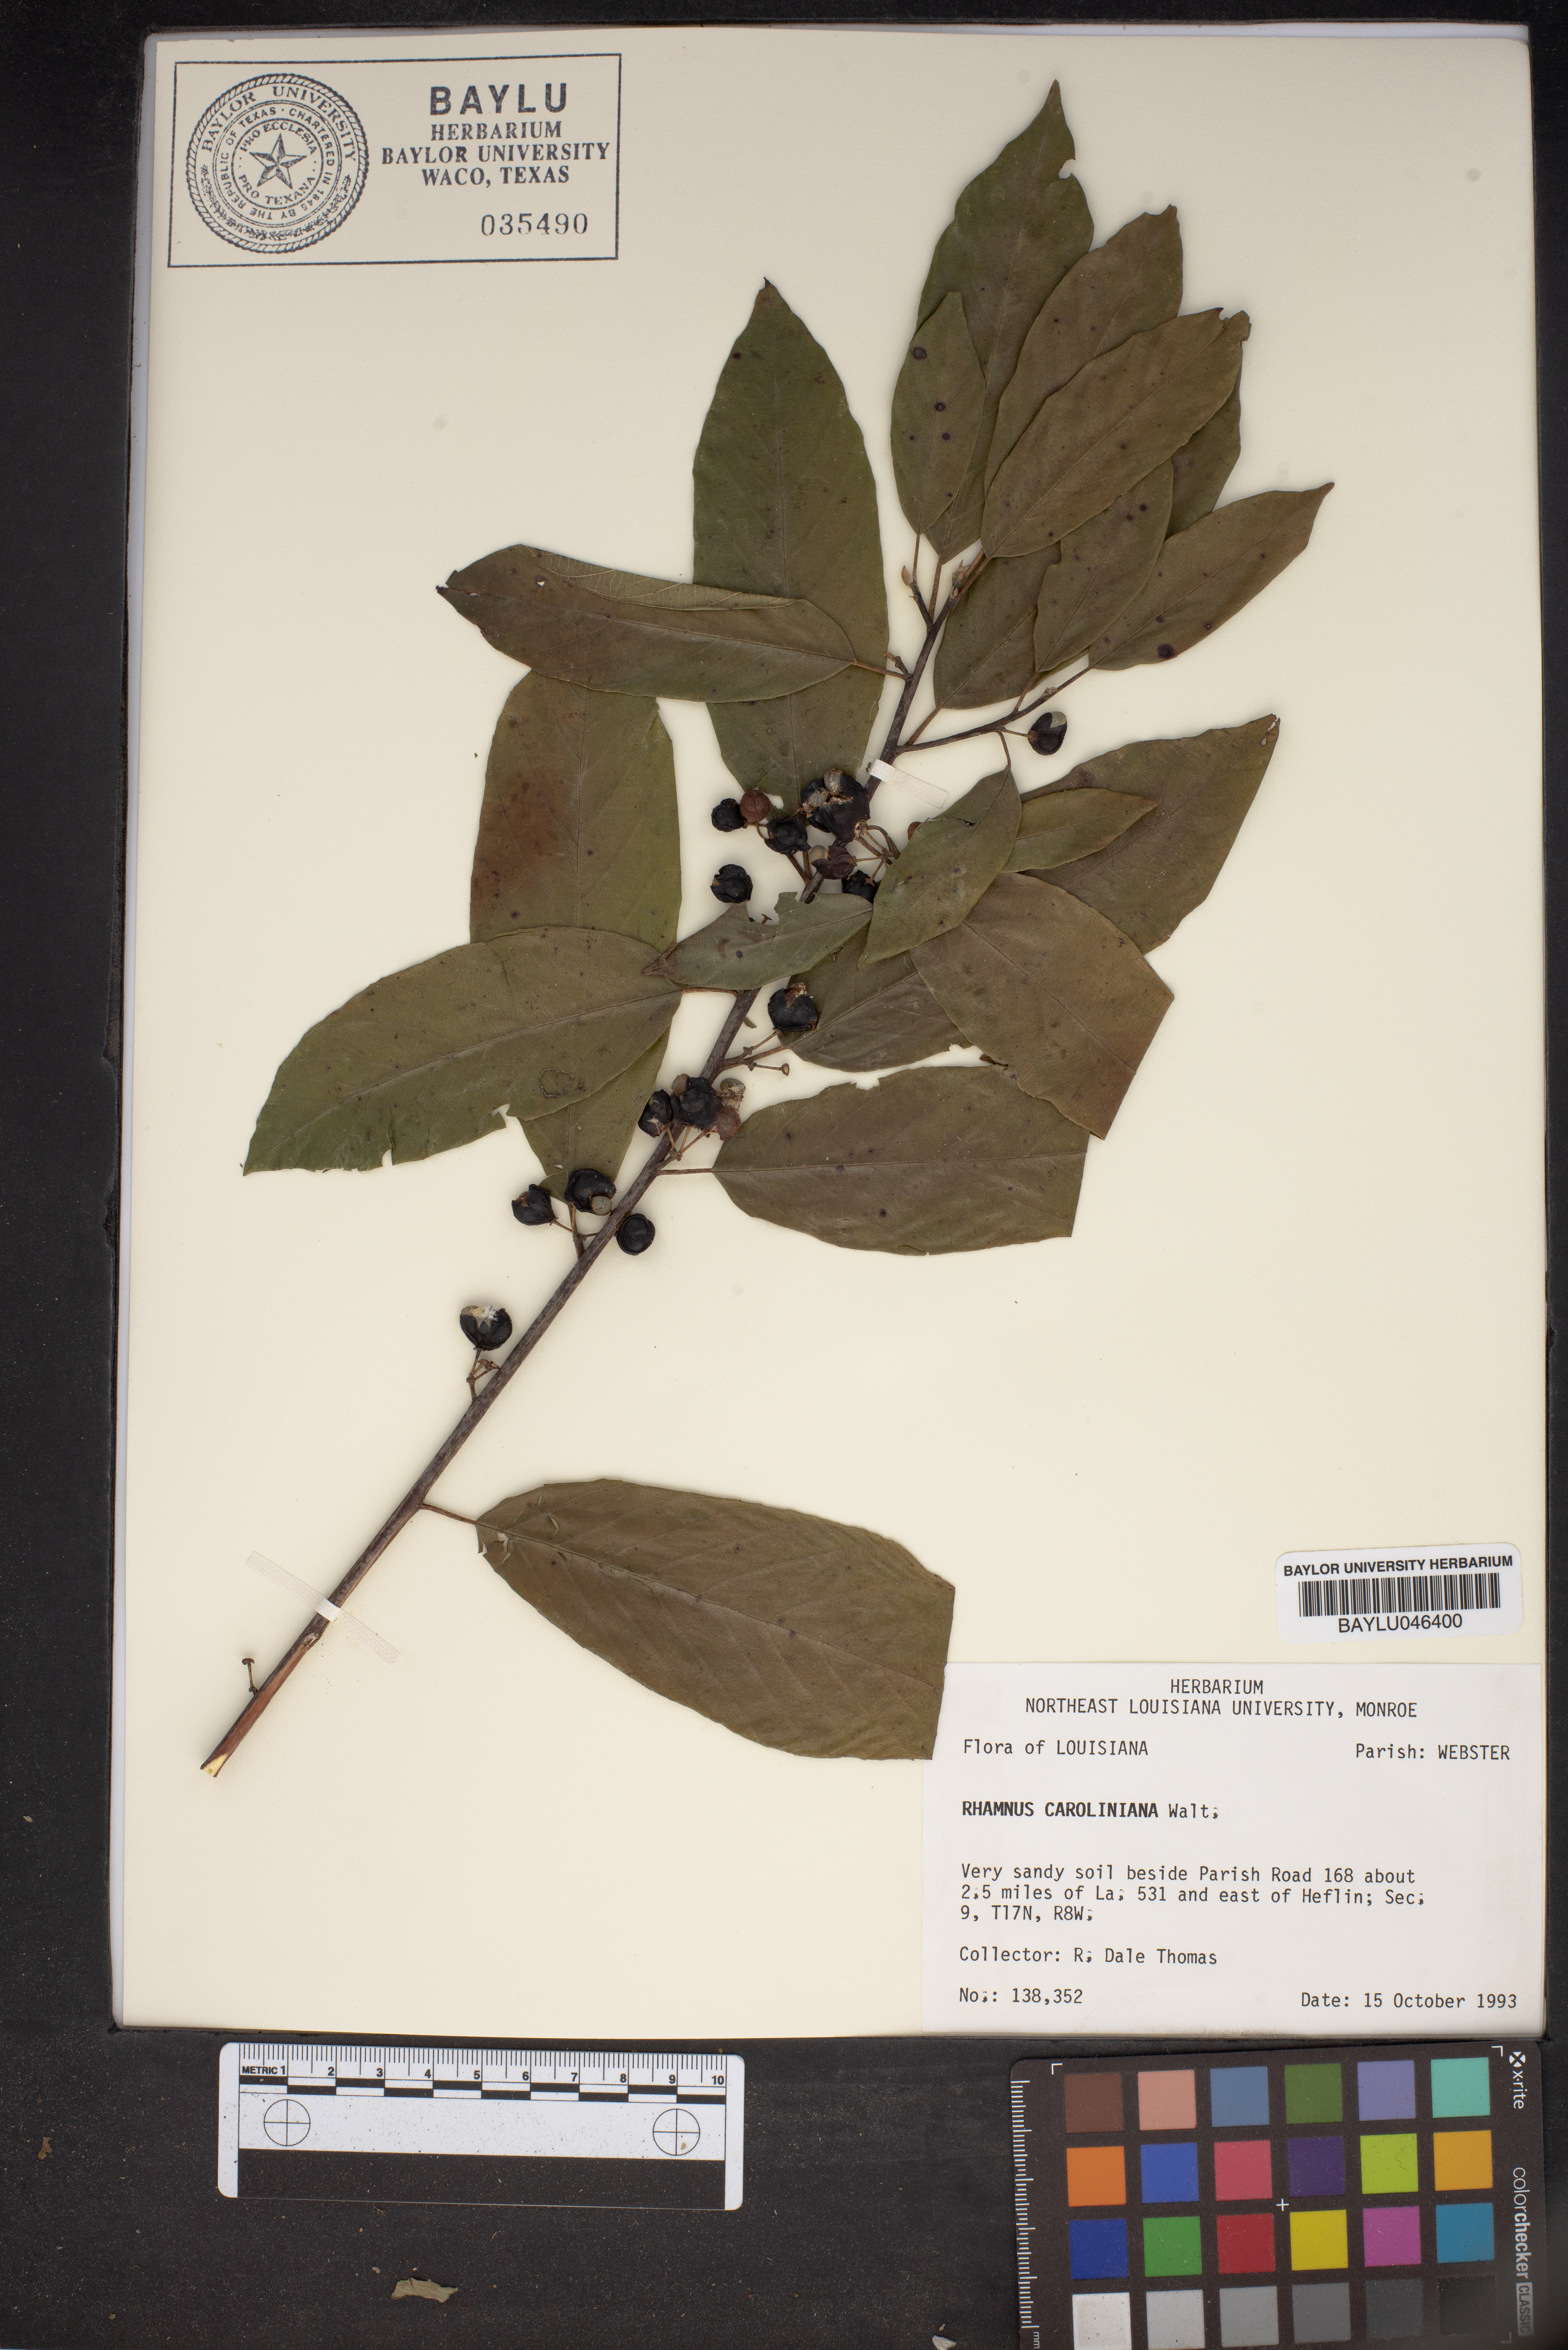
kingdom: Plantae
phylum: Tracheophyta
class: Magnoliopsida
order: Rosales
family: Rhamnaceae
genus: Frangula
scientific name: Frangula caroliniana
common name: Carolina buckthorn
